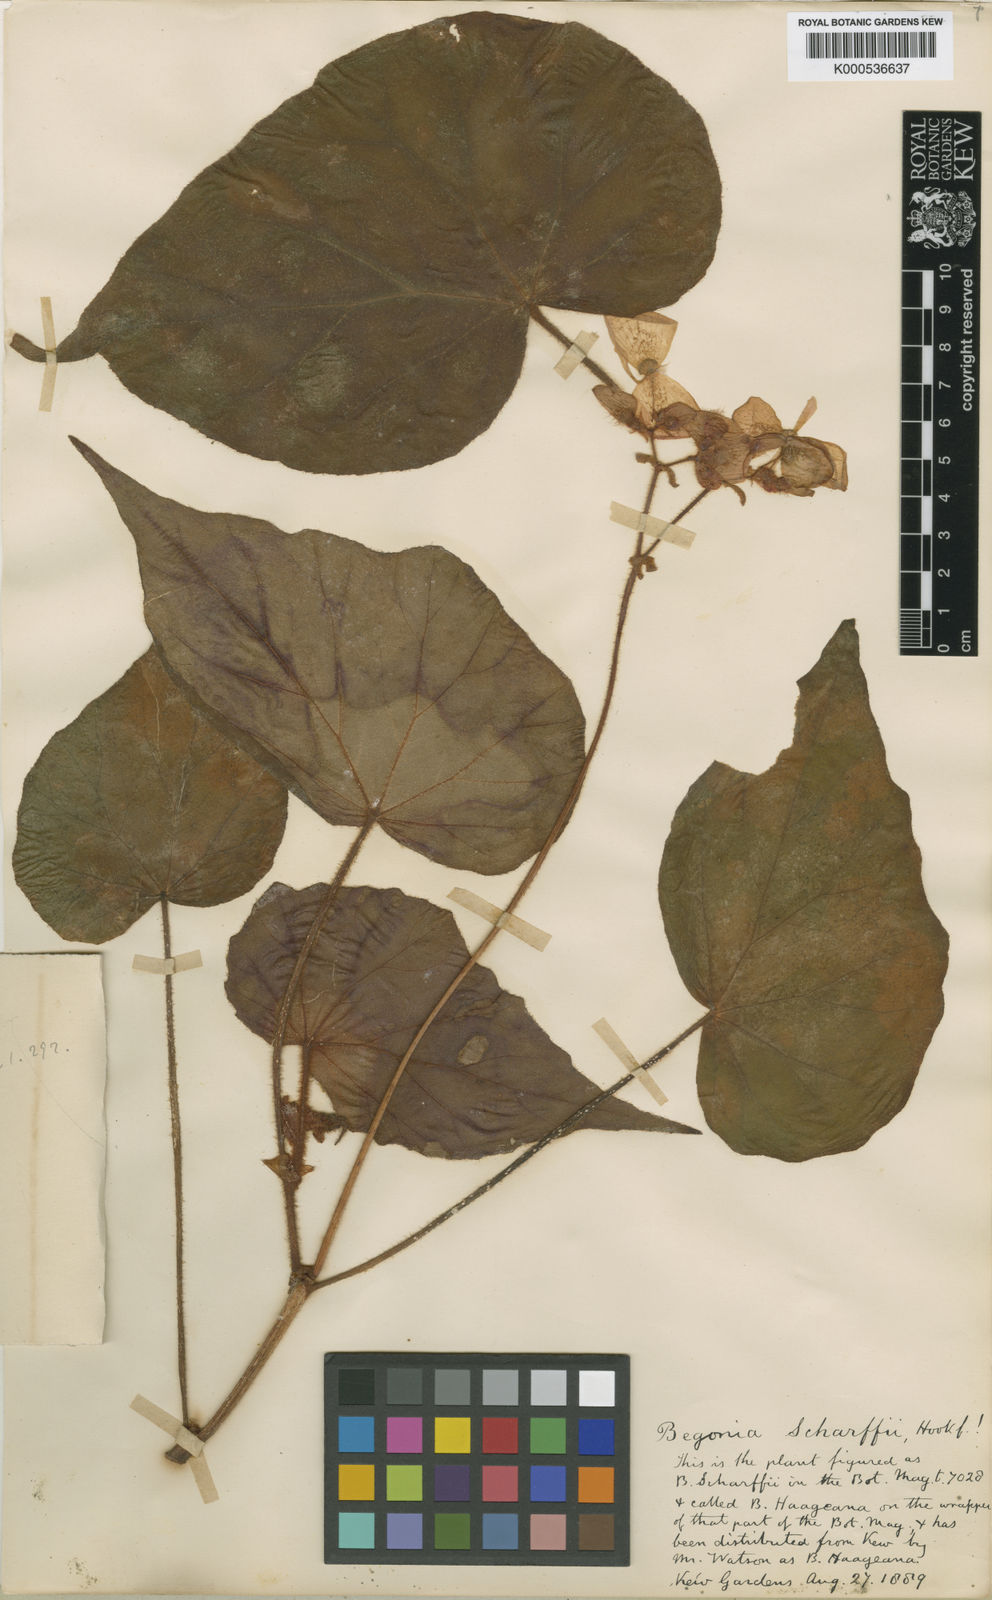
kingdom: Plantae
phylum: Tracheophyta
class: Magnoliopsida
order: Cucurbitales
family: Begoniaceae
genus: Begonia
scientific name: Begonia haageana
